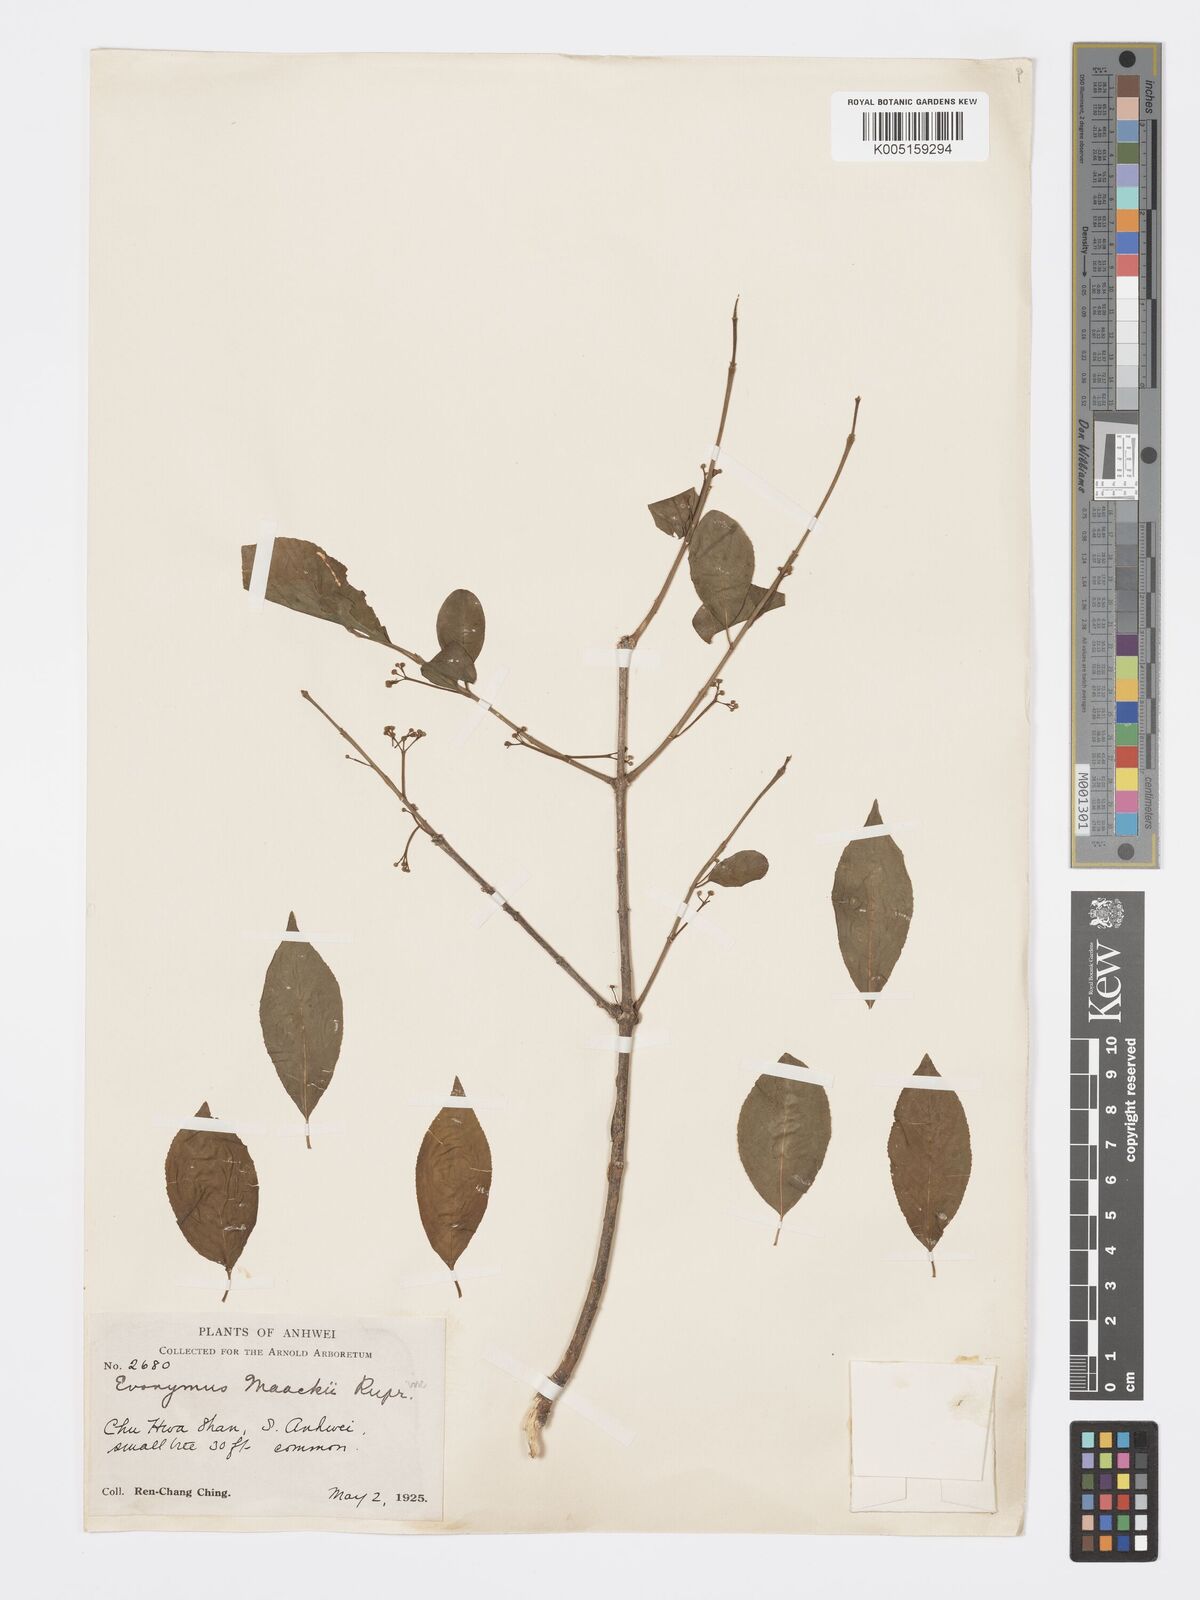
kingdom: Plantae
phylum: Tracheophyta
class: Magnoliopsida
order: Celastrales
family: Celastraceae
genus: Euonymus
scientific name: Euonymus maackii
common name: Hamilton's spindletree
